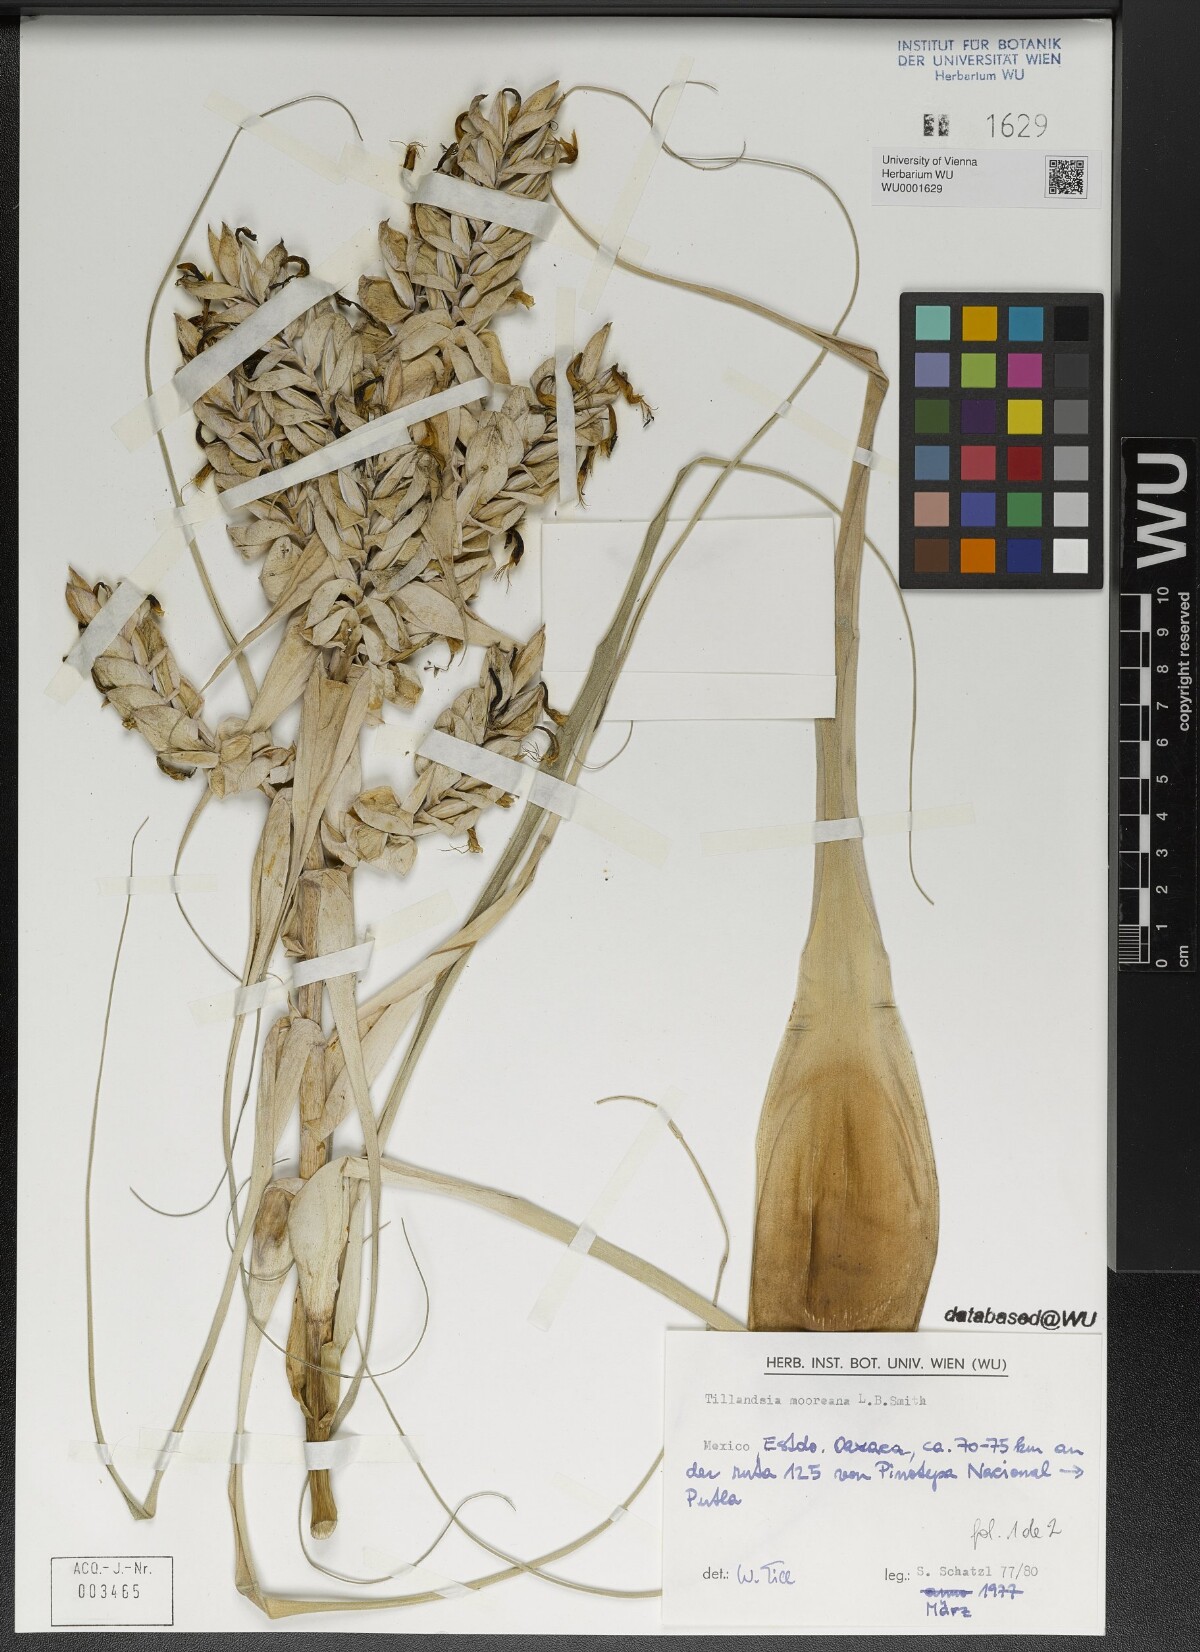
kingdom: Plantae
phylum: Tracheophyta
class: Liliopsida
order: Poales
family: Bromeliaceae
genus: Tillandsia
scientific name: Tillandsia mooreana
